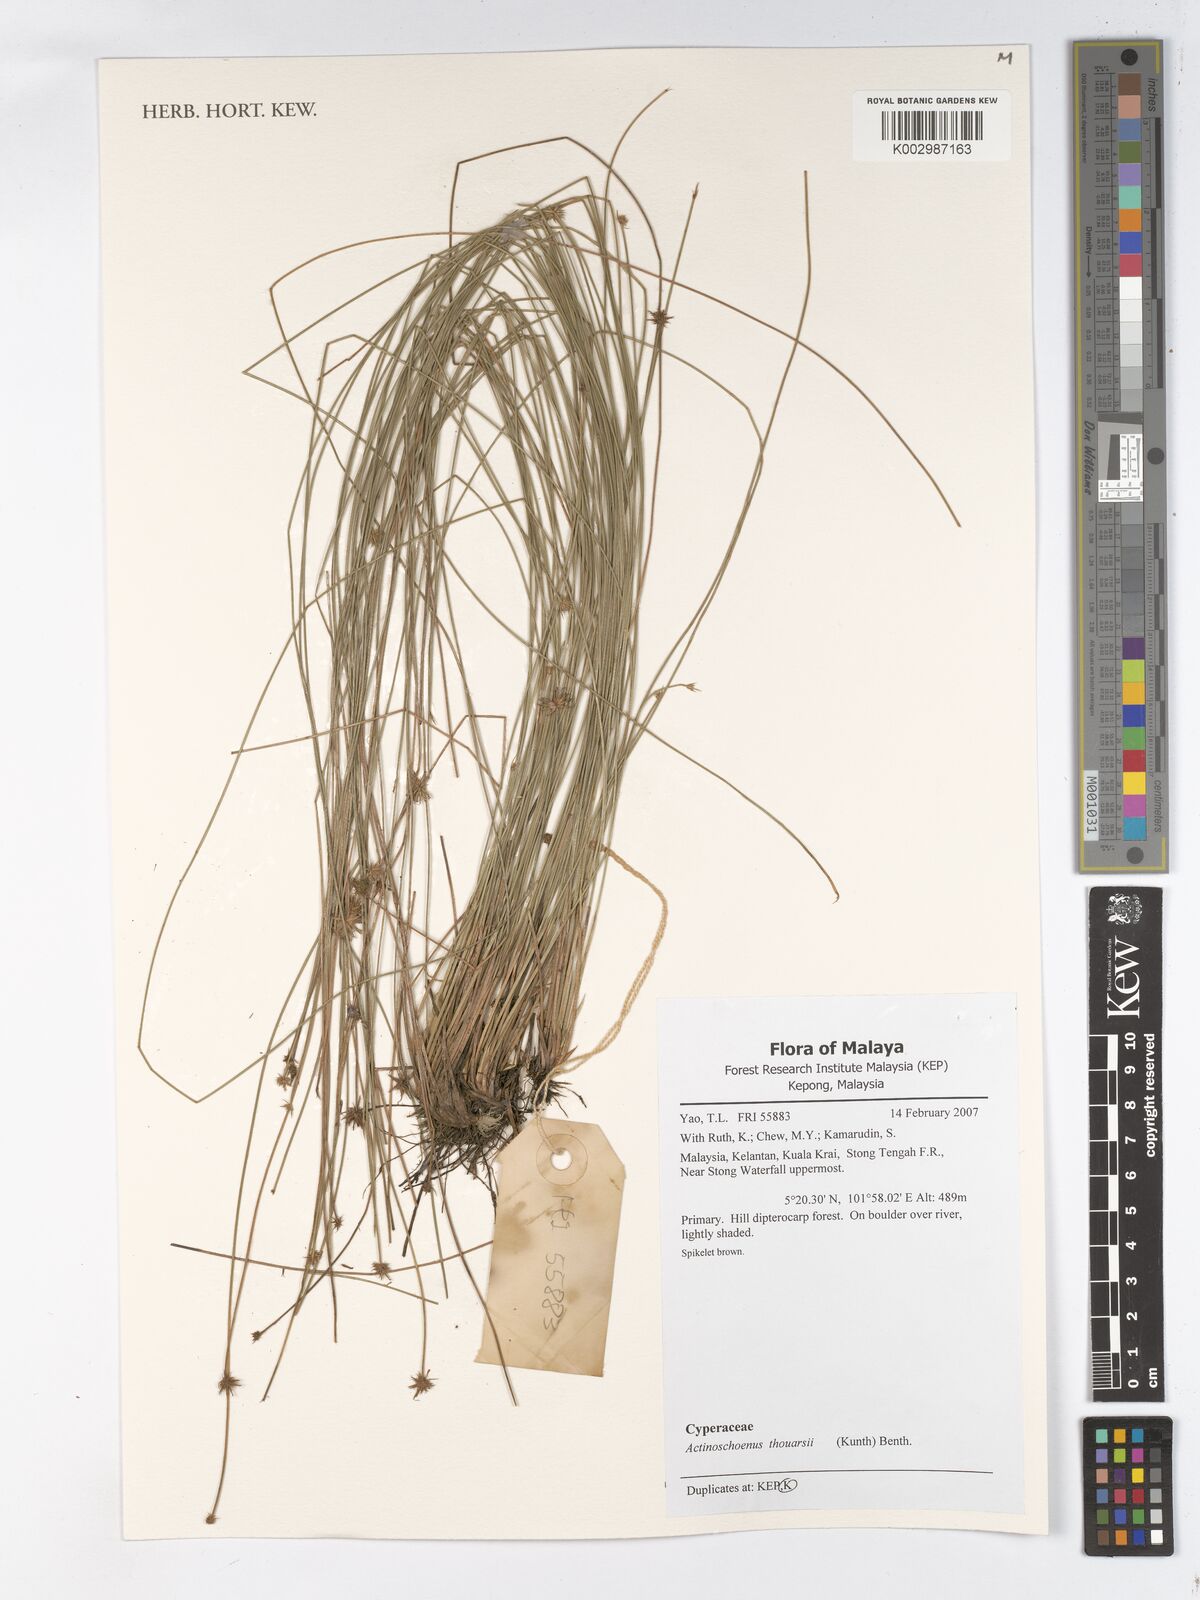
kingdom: Plantae
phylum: Tracheophyta
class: Liliopsida
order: Poales
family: Cyperaceae
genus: Actinoschoenus
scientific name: Actinoschoenus aphyllus
